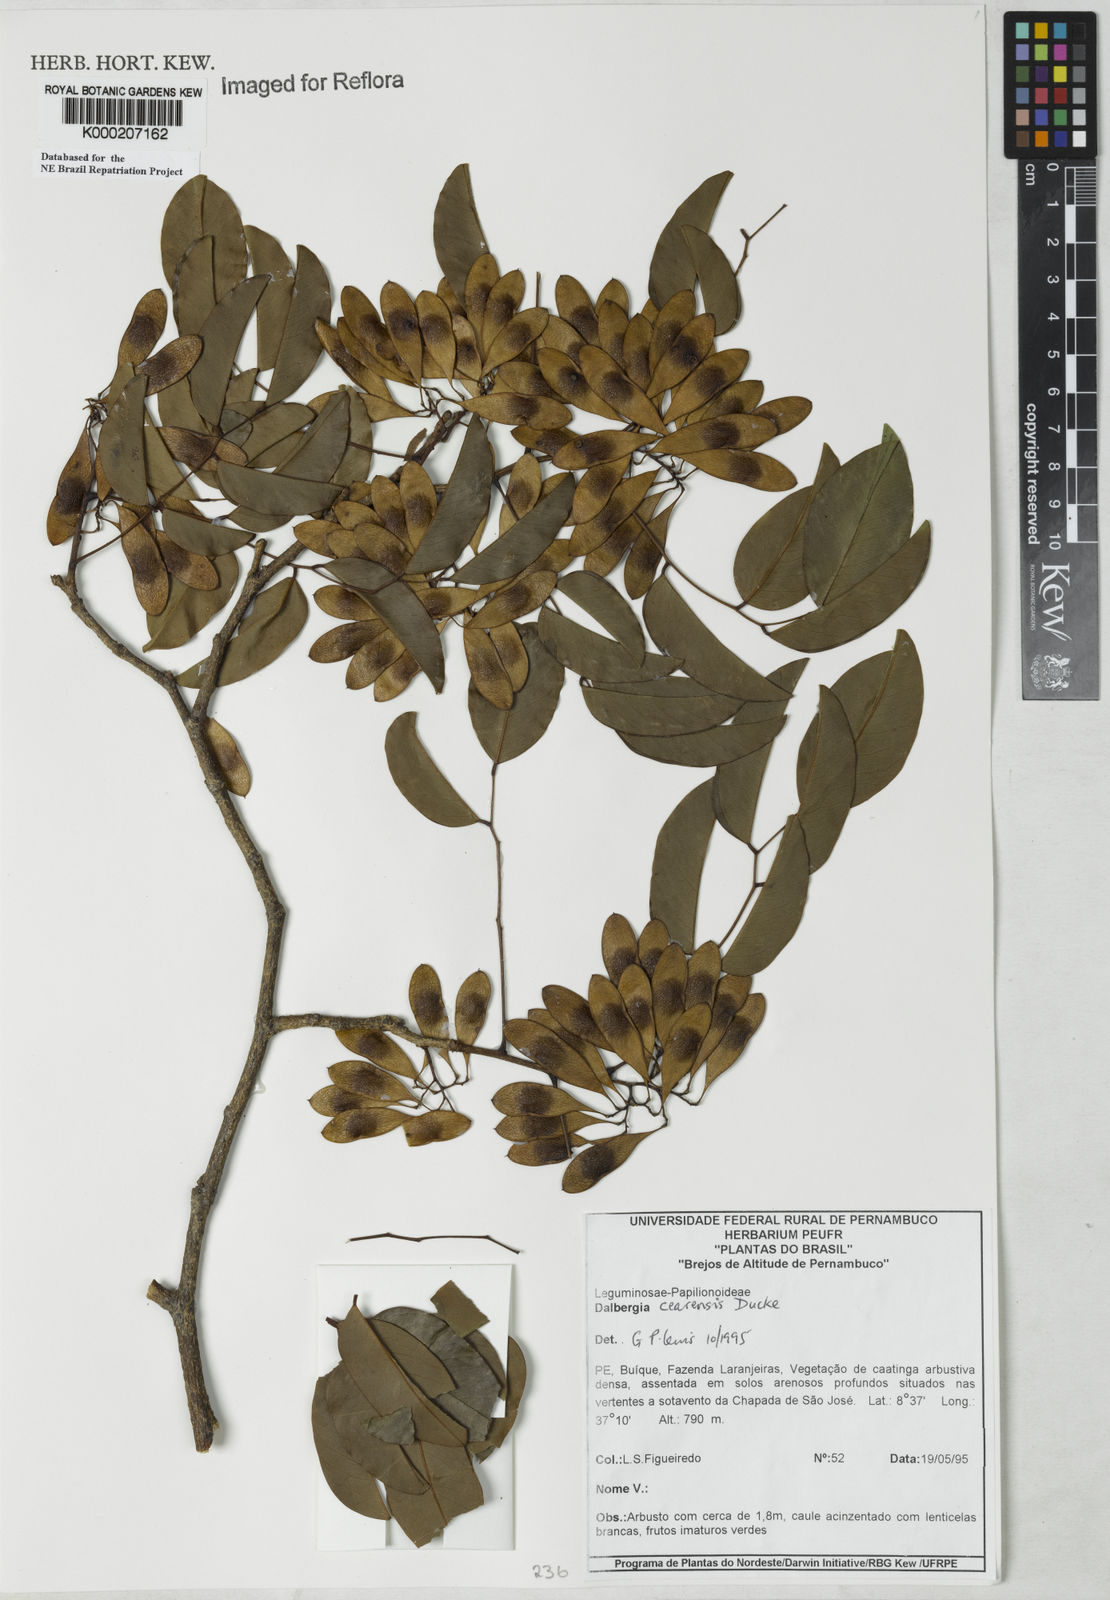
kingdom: Plantae
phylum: Tracheophyta
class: Magnoliopsida
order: Fabales
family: Fabaceae
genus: Dalbergia
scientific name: Dalbergia cearensis
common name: Brazilian-king-wood
